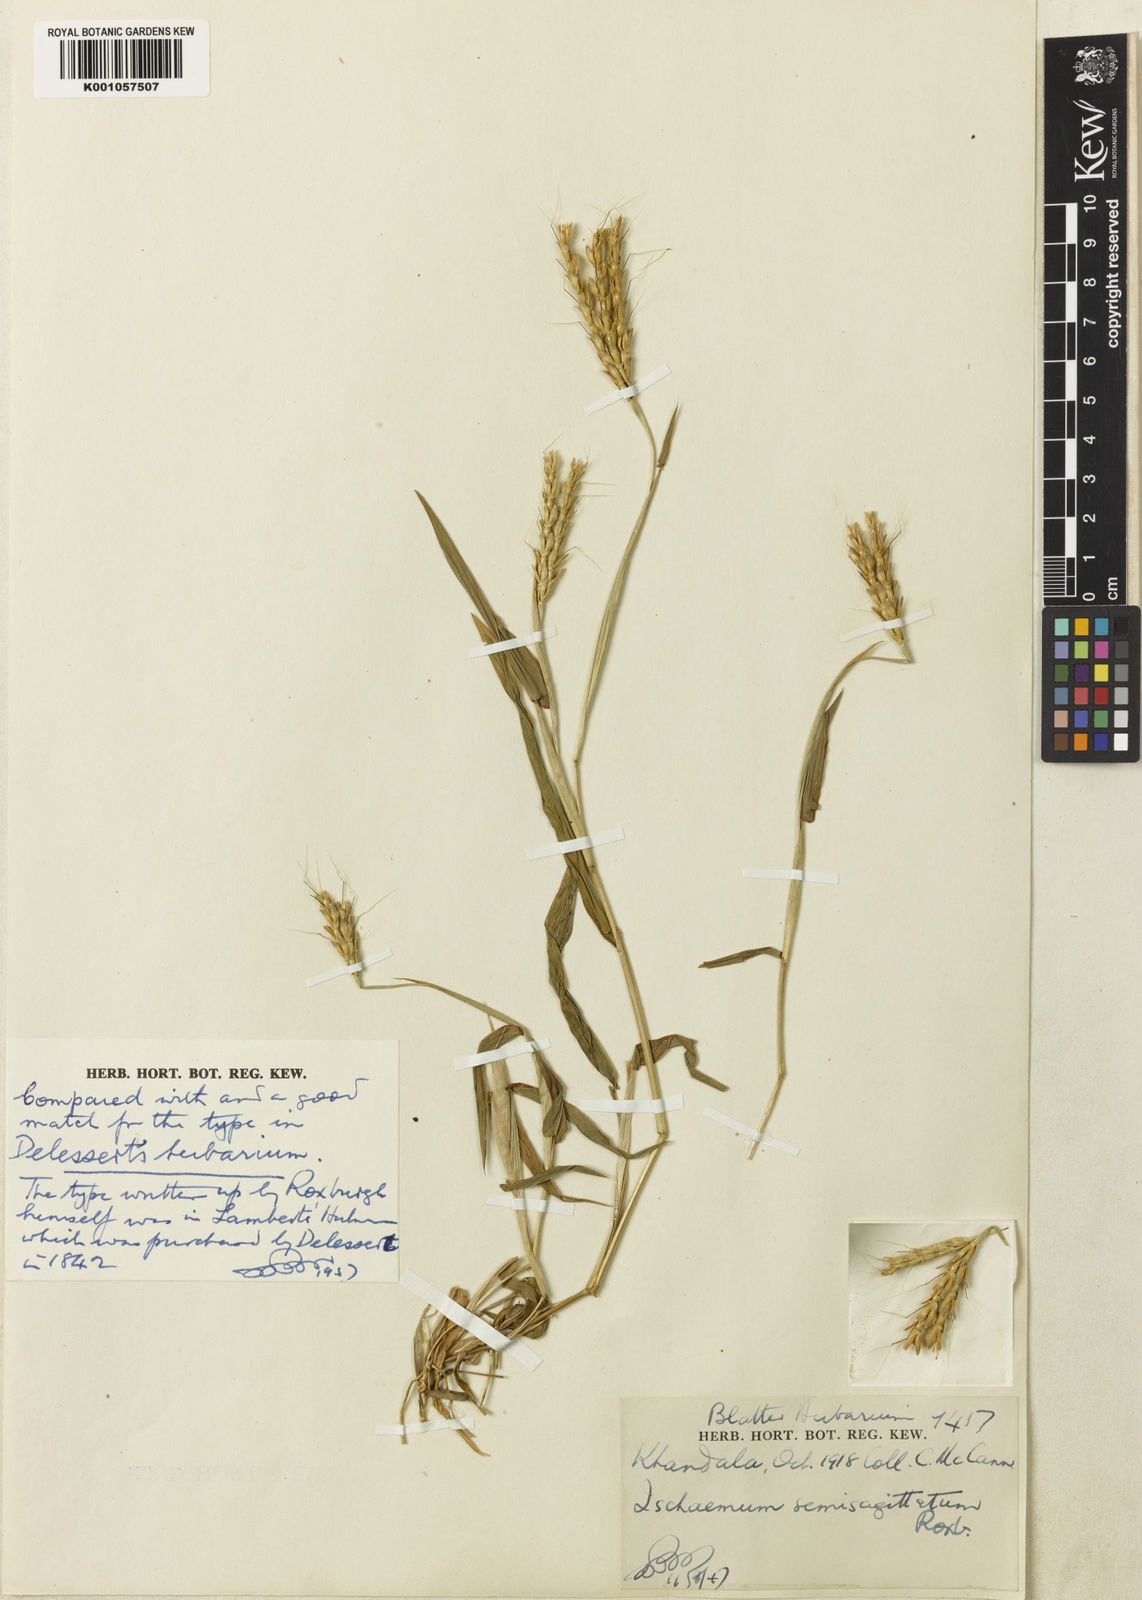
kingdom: Plantae
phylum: Tracheophyta
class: Liliopsida
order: Poales
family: Poaceae
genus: Ischaemum
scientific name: Ischaemum semisagittatum
